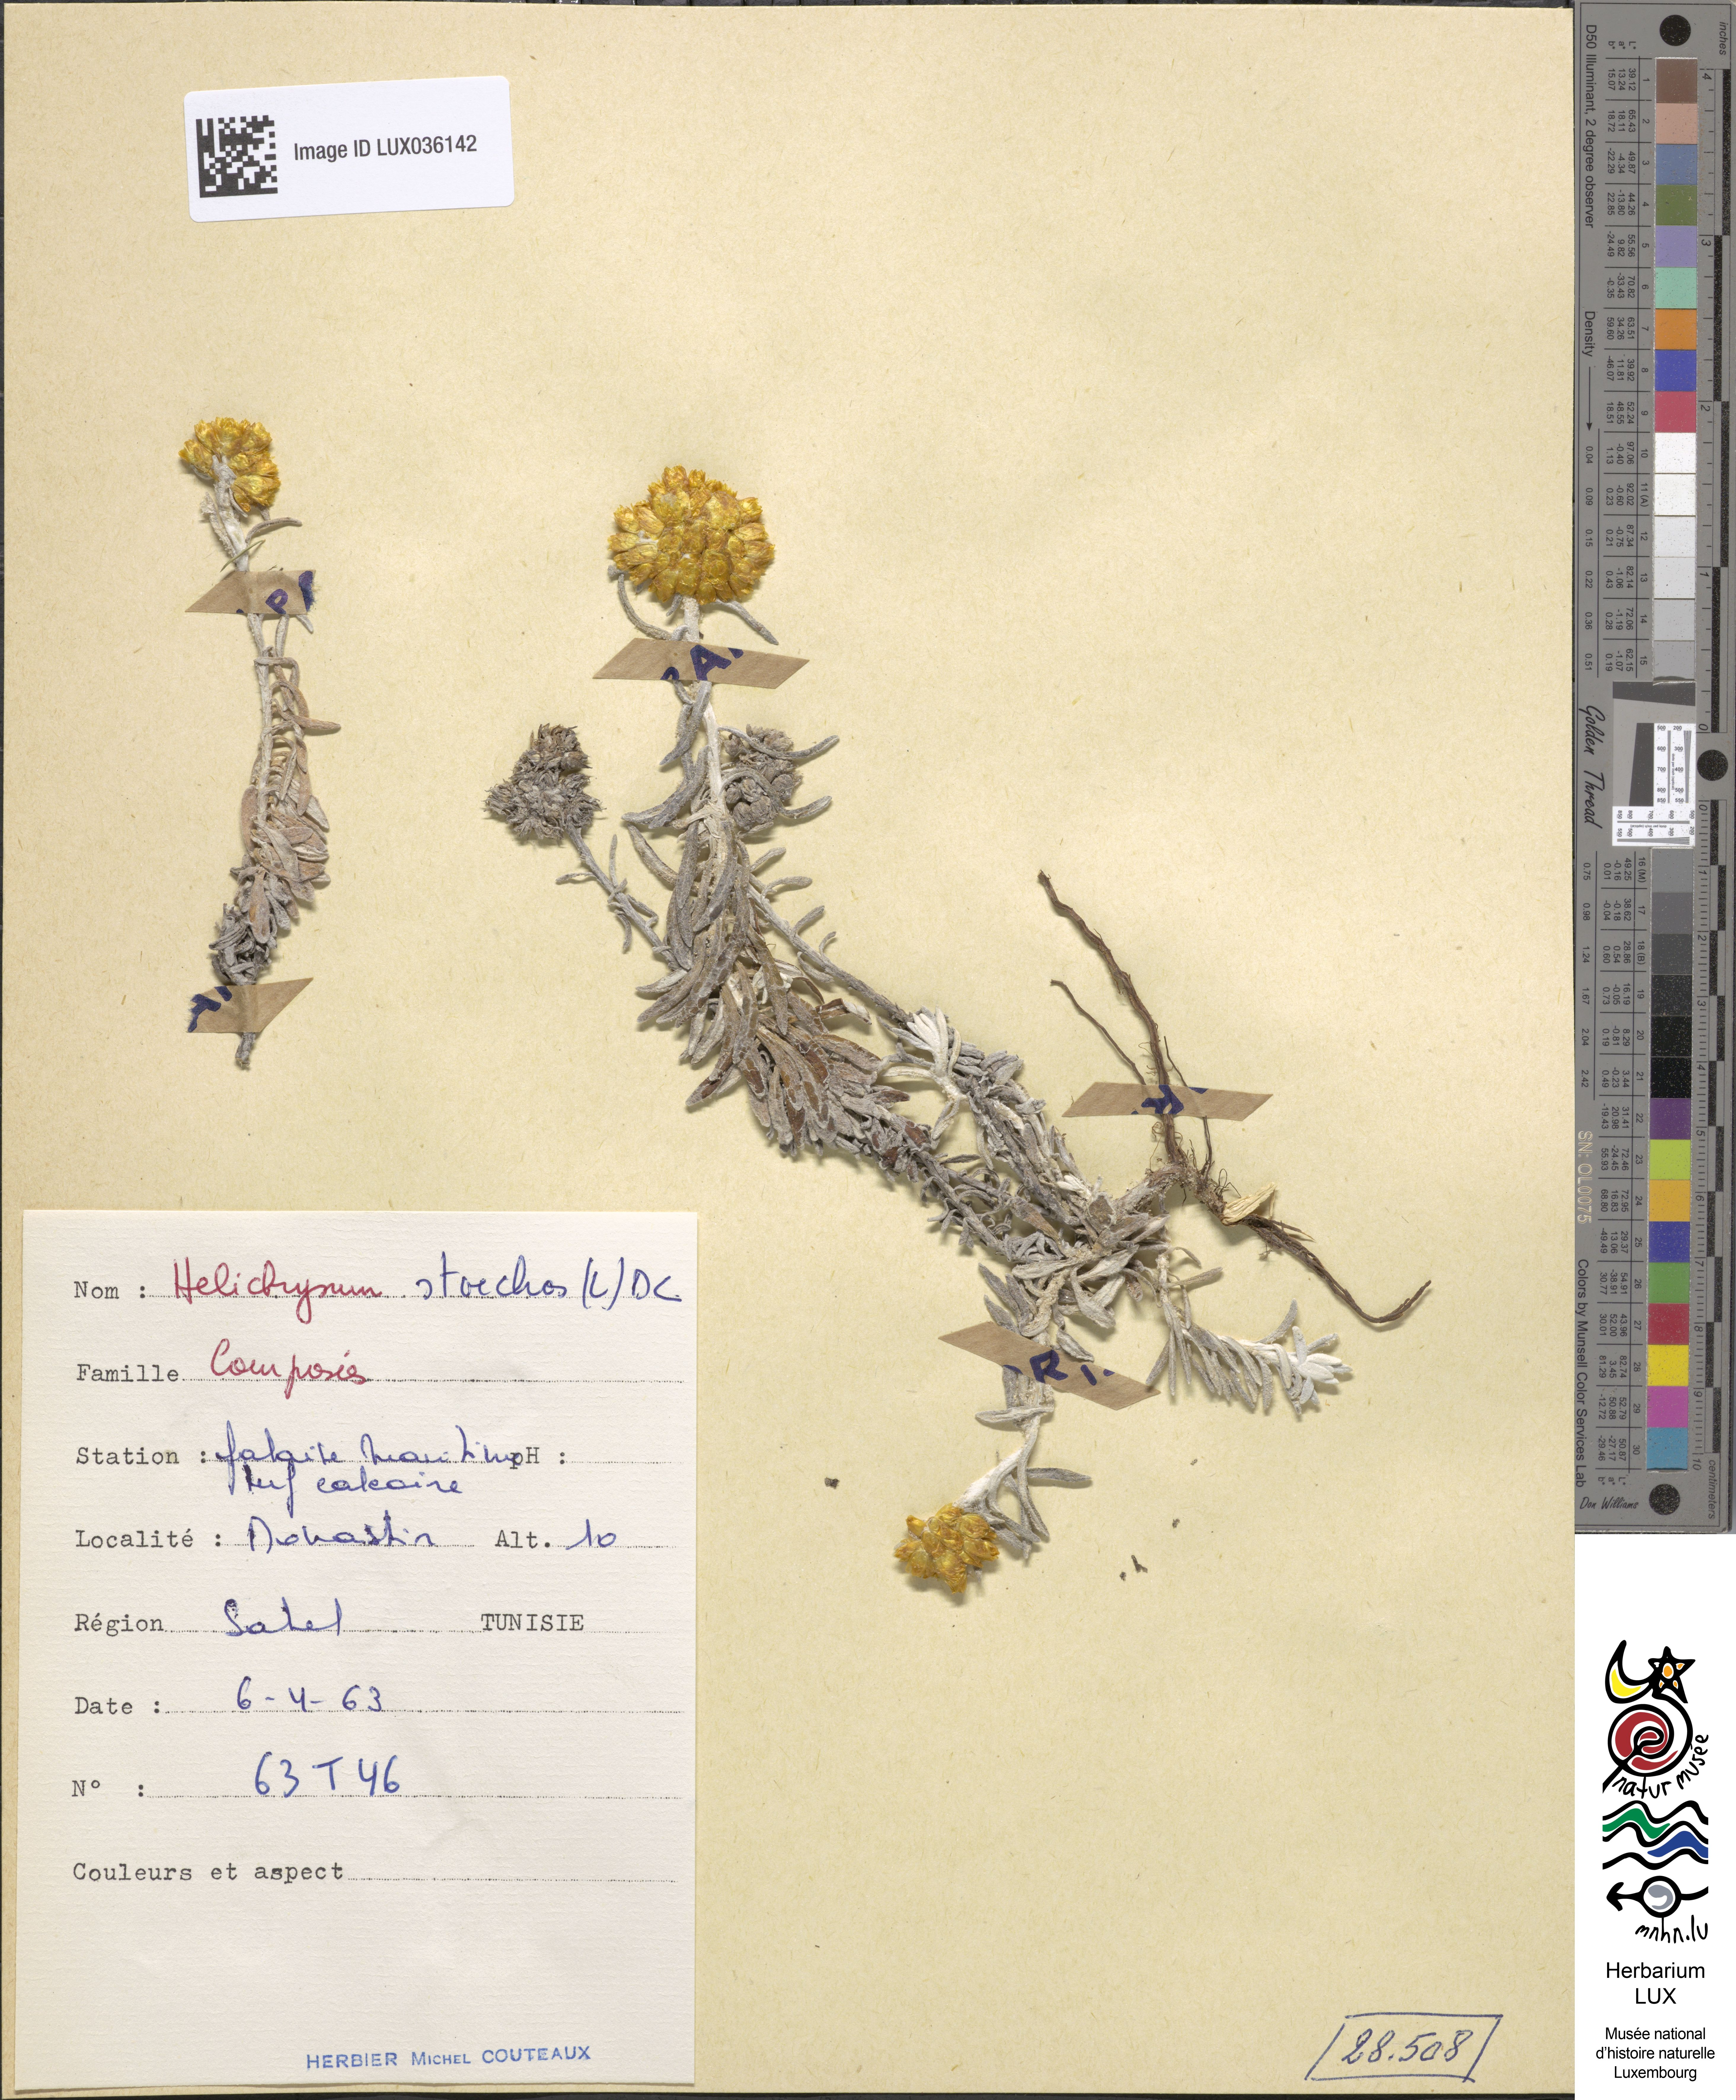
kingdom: Plantae
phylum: Tracheophyta
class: Magnoliopsida
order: Asterales
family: Asteraceae
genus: Helichrysum
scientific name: Helichrysum stoechas
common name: Goldilocks
